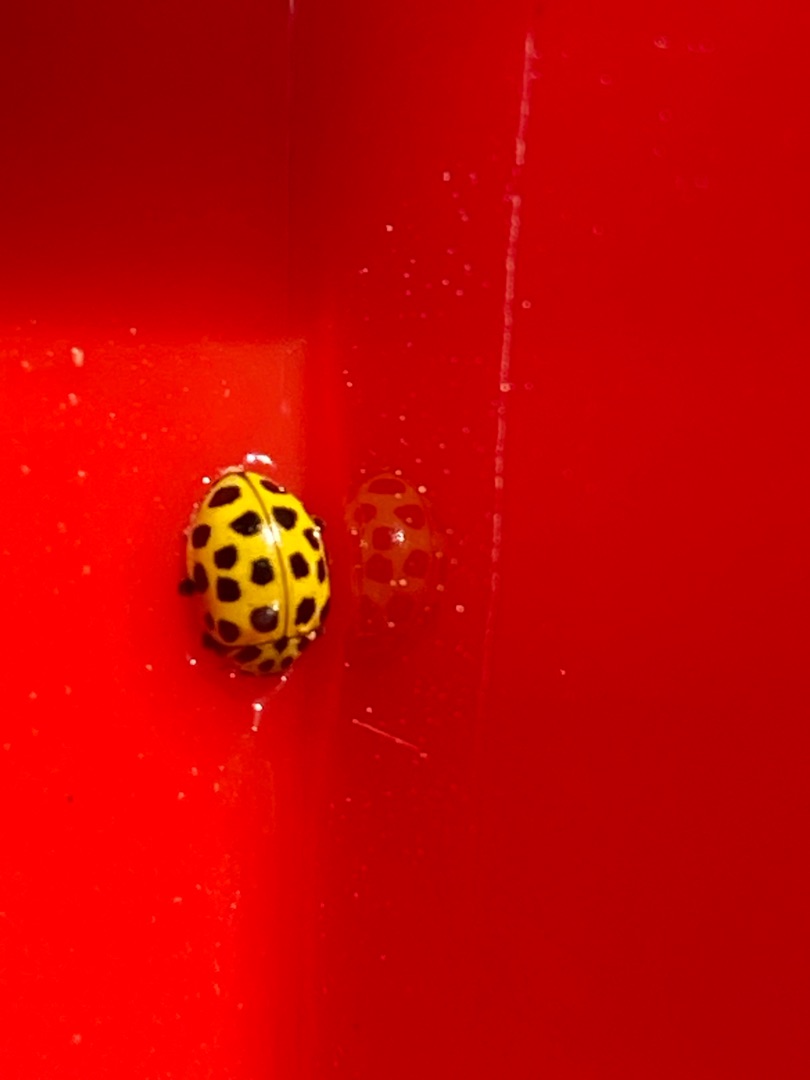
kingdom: Animalia
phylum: Arthropoda
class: Insecta
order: Coleoptera
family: Coccinellidae
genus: Psyllobora
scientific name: Psyllobora vigintiduopunctata
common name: Toogtyveplettet mariehøne
